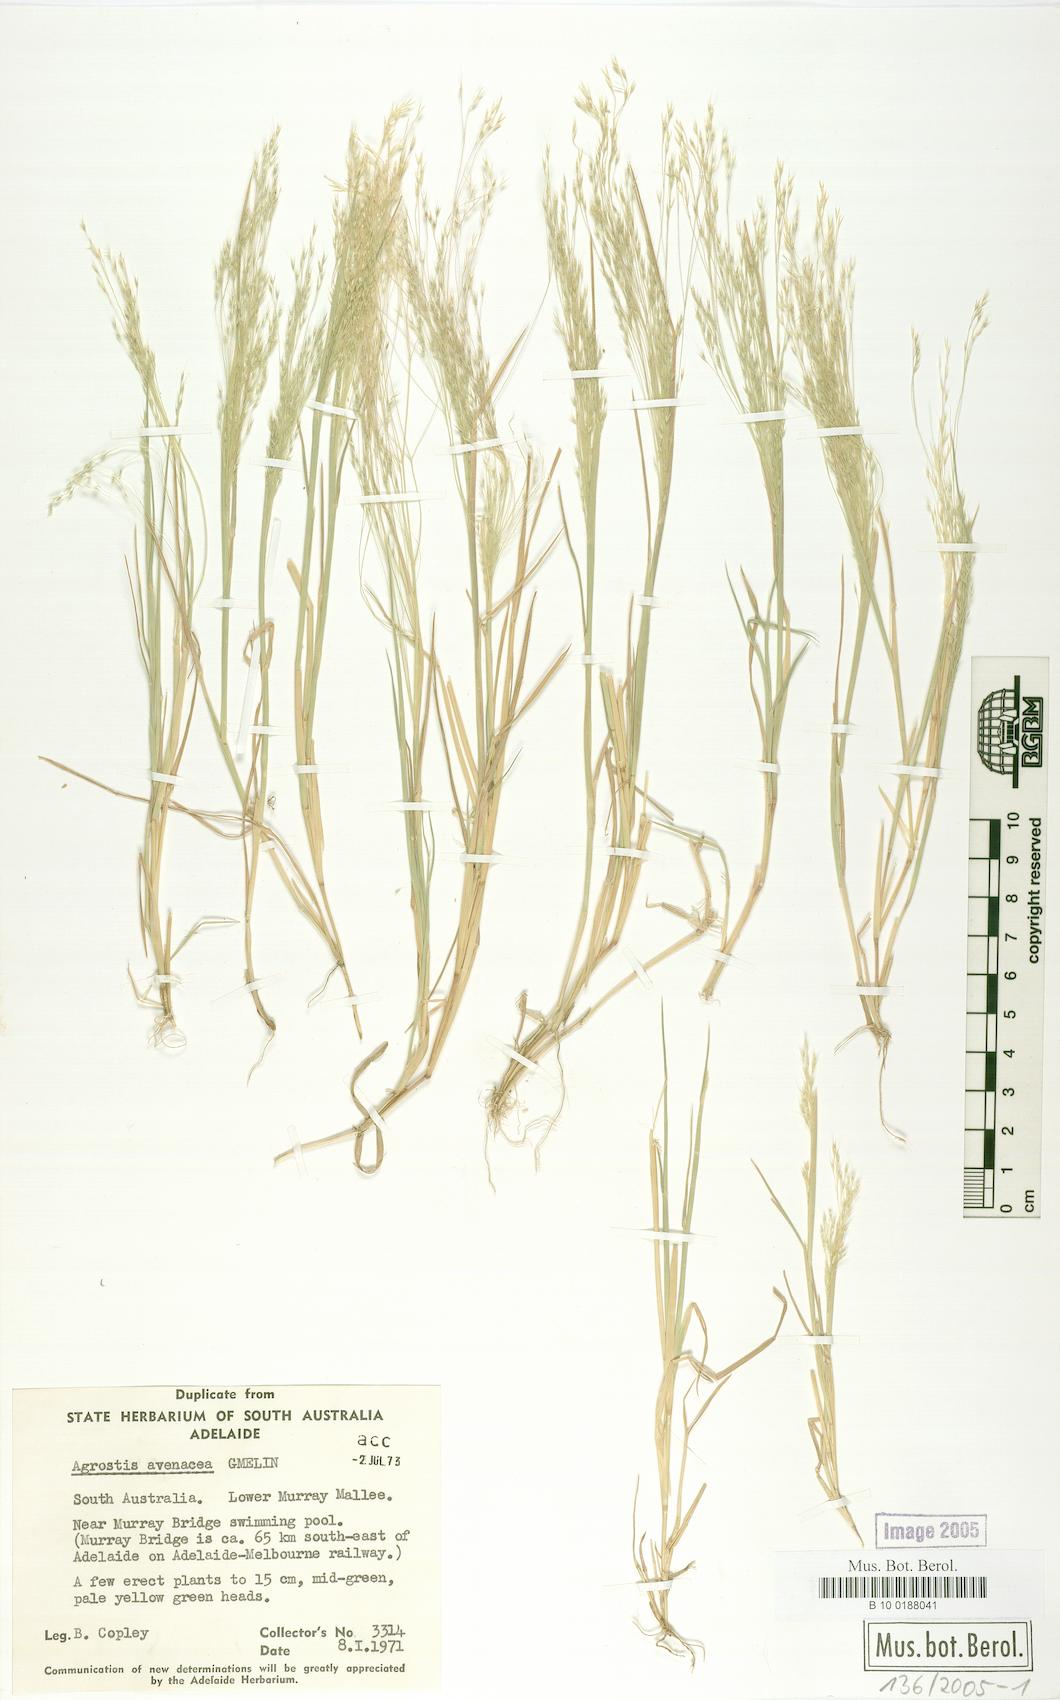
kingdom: Plantae
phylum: Tracheophyta
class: Liliopsida
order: Poales
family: Poaceae
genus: Lachnagrostis
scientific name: Lachnagrostis filiformis
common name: Bentgrass
